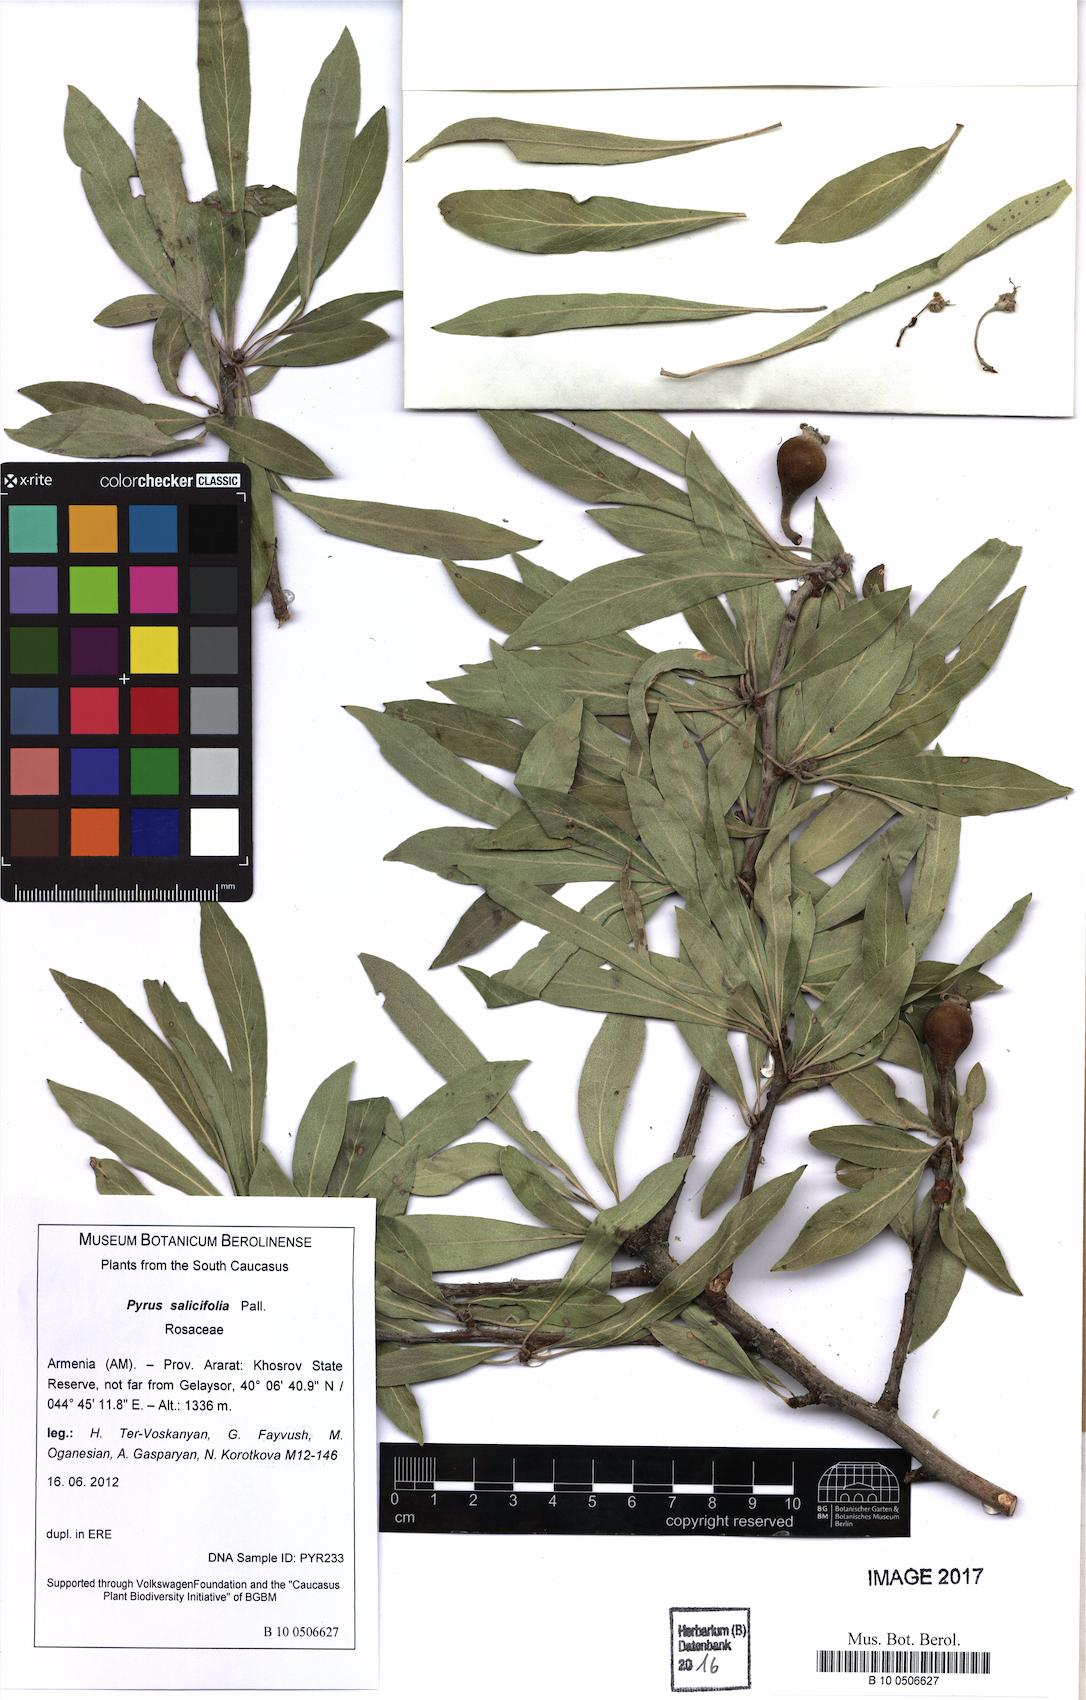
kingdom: Plantae
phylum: Tracheophyta
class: Magnoliopsida
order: Rosales
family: Rosaceae
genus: Pyrus
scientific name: Pyrus salicifolia
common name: Willow-leaved pear
